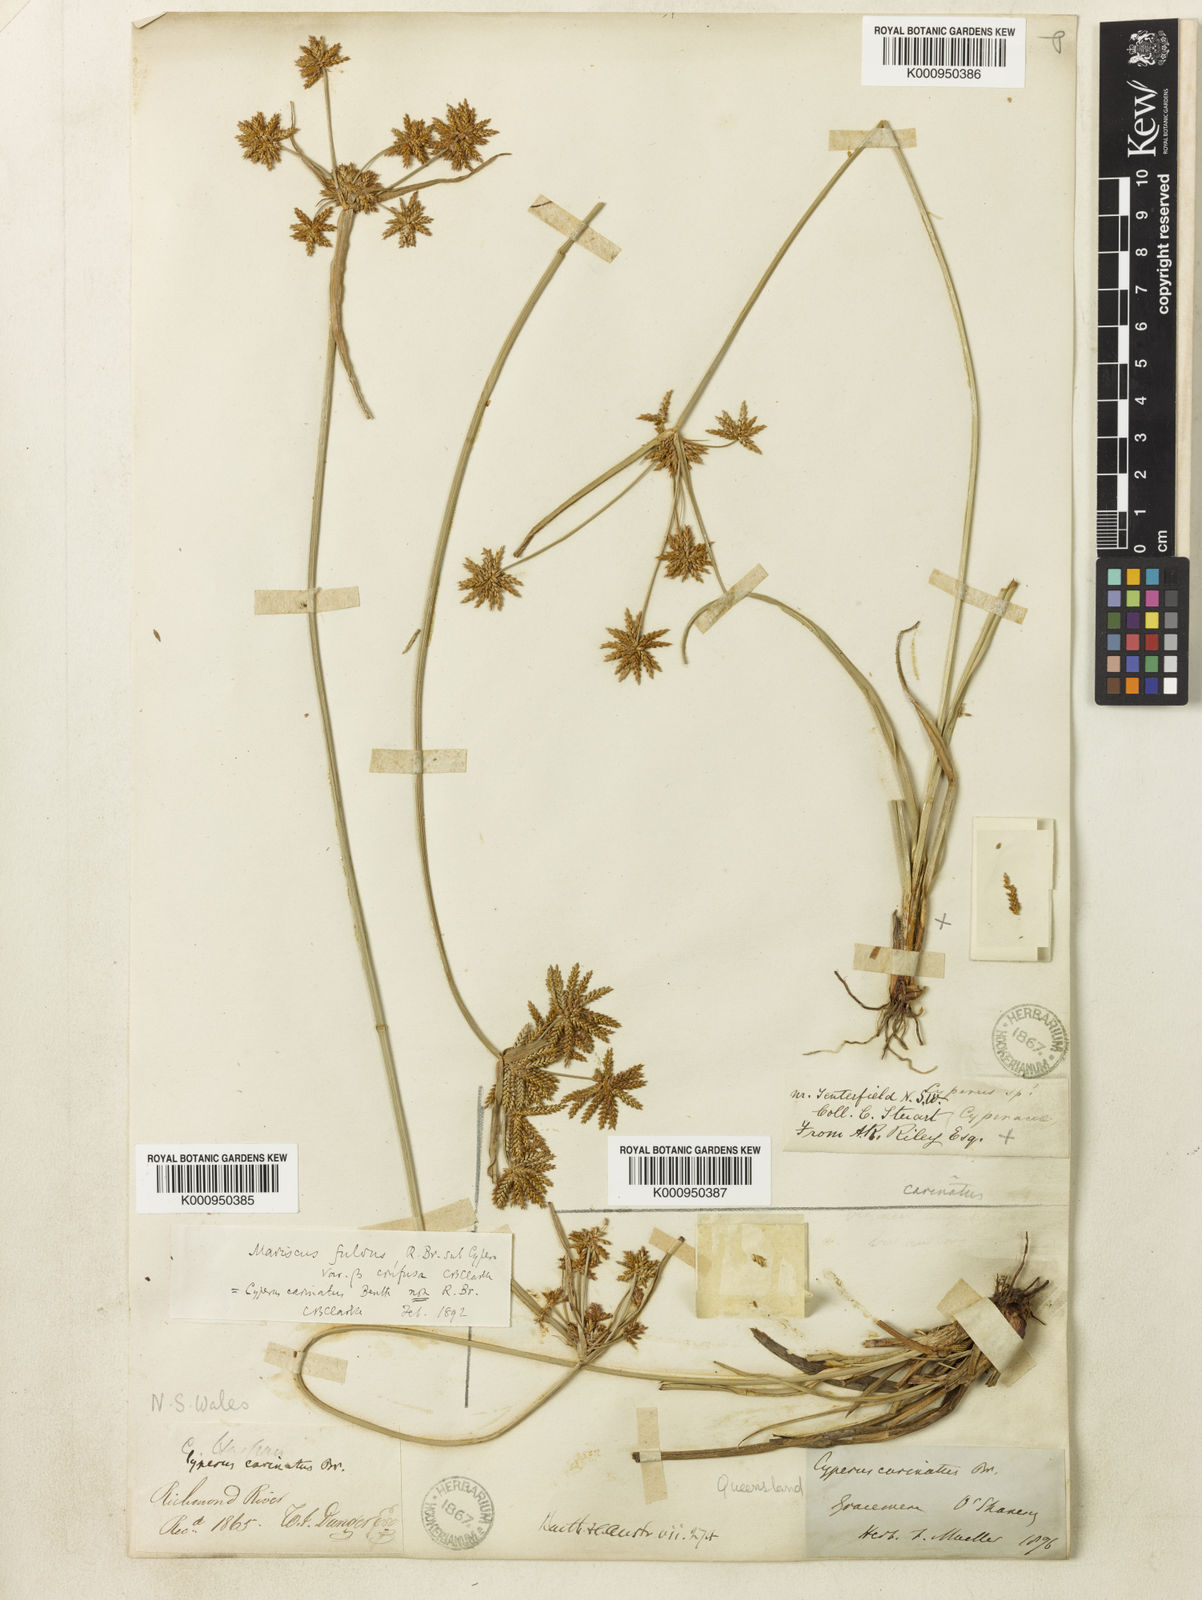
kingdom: Plantae
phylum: Tracheophyta
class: Liliopsida
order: Poales
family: Cyperaceae
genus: Cyperus
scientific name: Cyperus fulvus
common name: Sticky sedge
